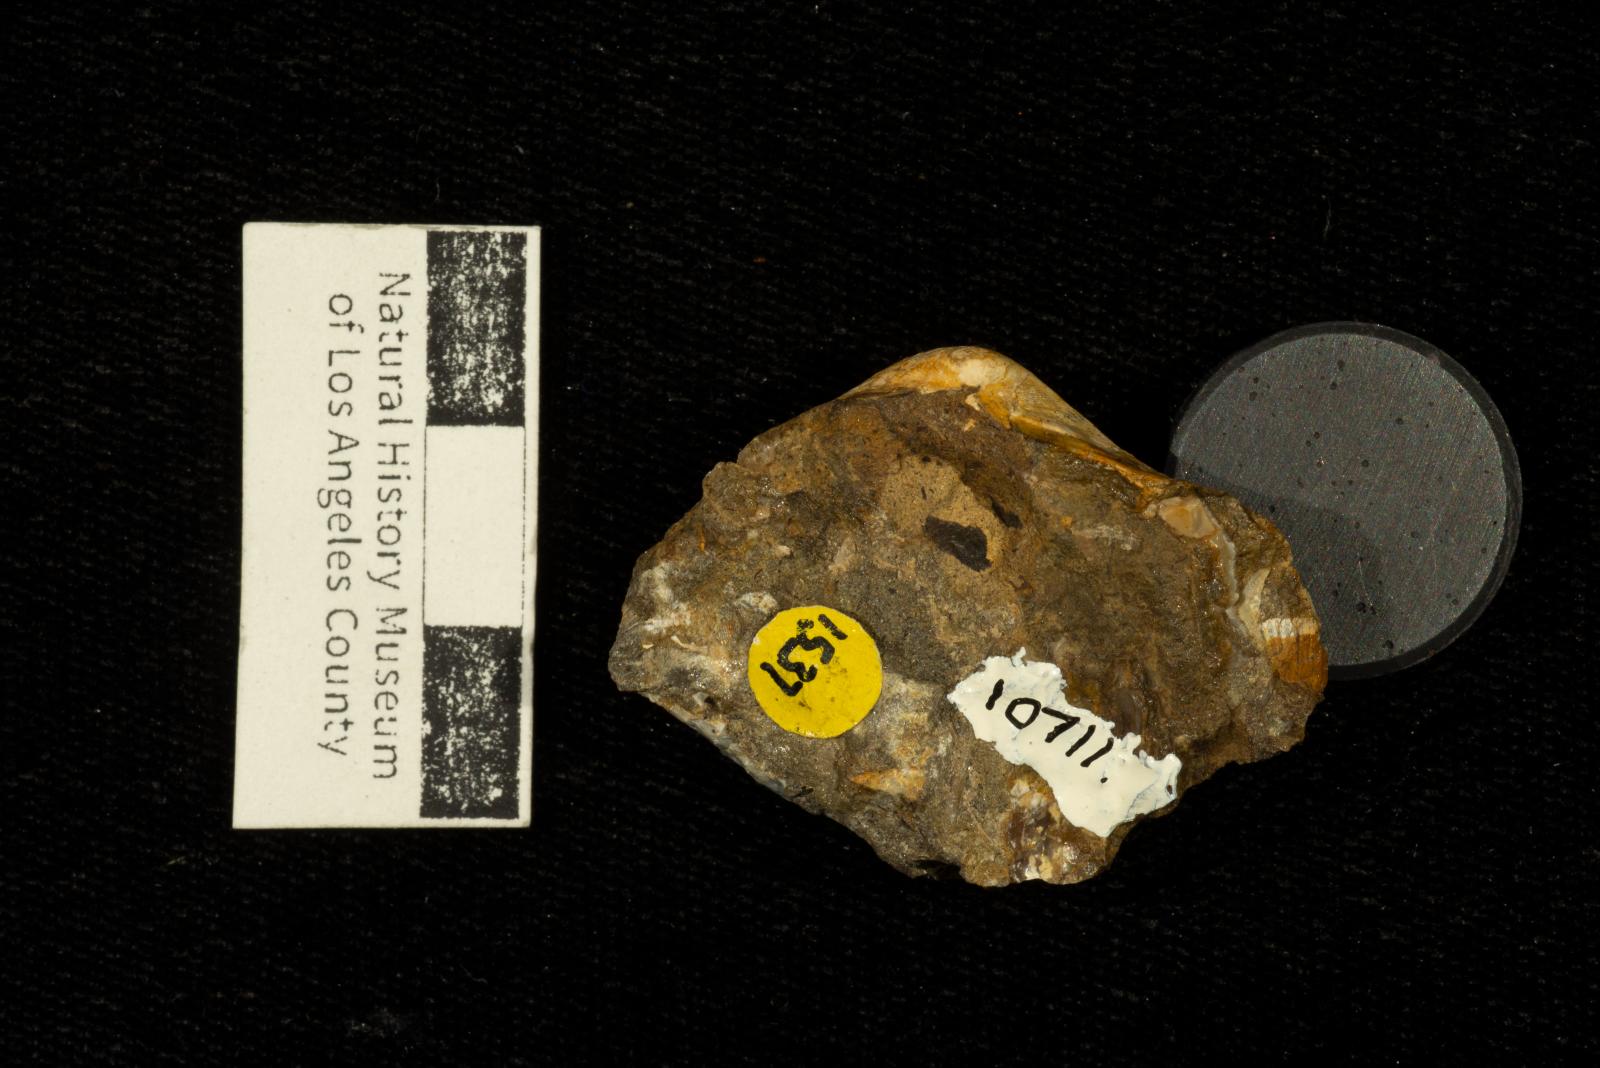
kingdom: Animalia
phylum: Mollusca
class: Bivalvia
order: Carditida
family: Crassatellidae
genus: Crassinella
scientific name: Crassinella
